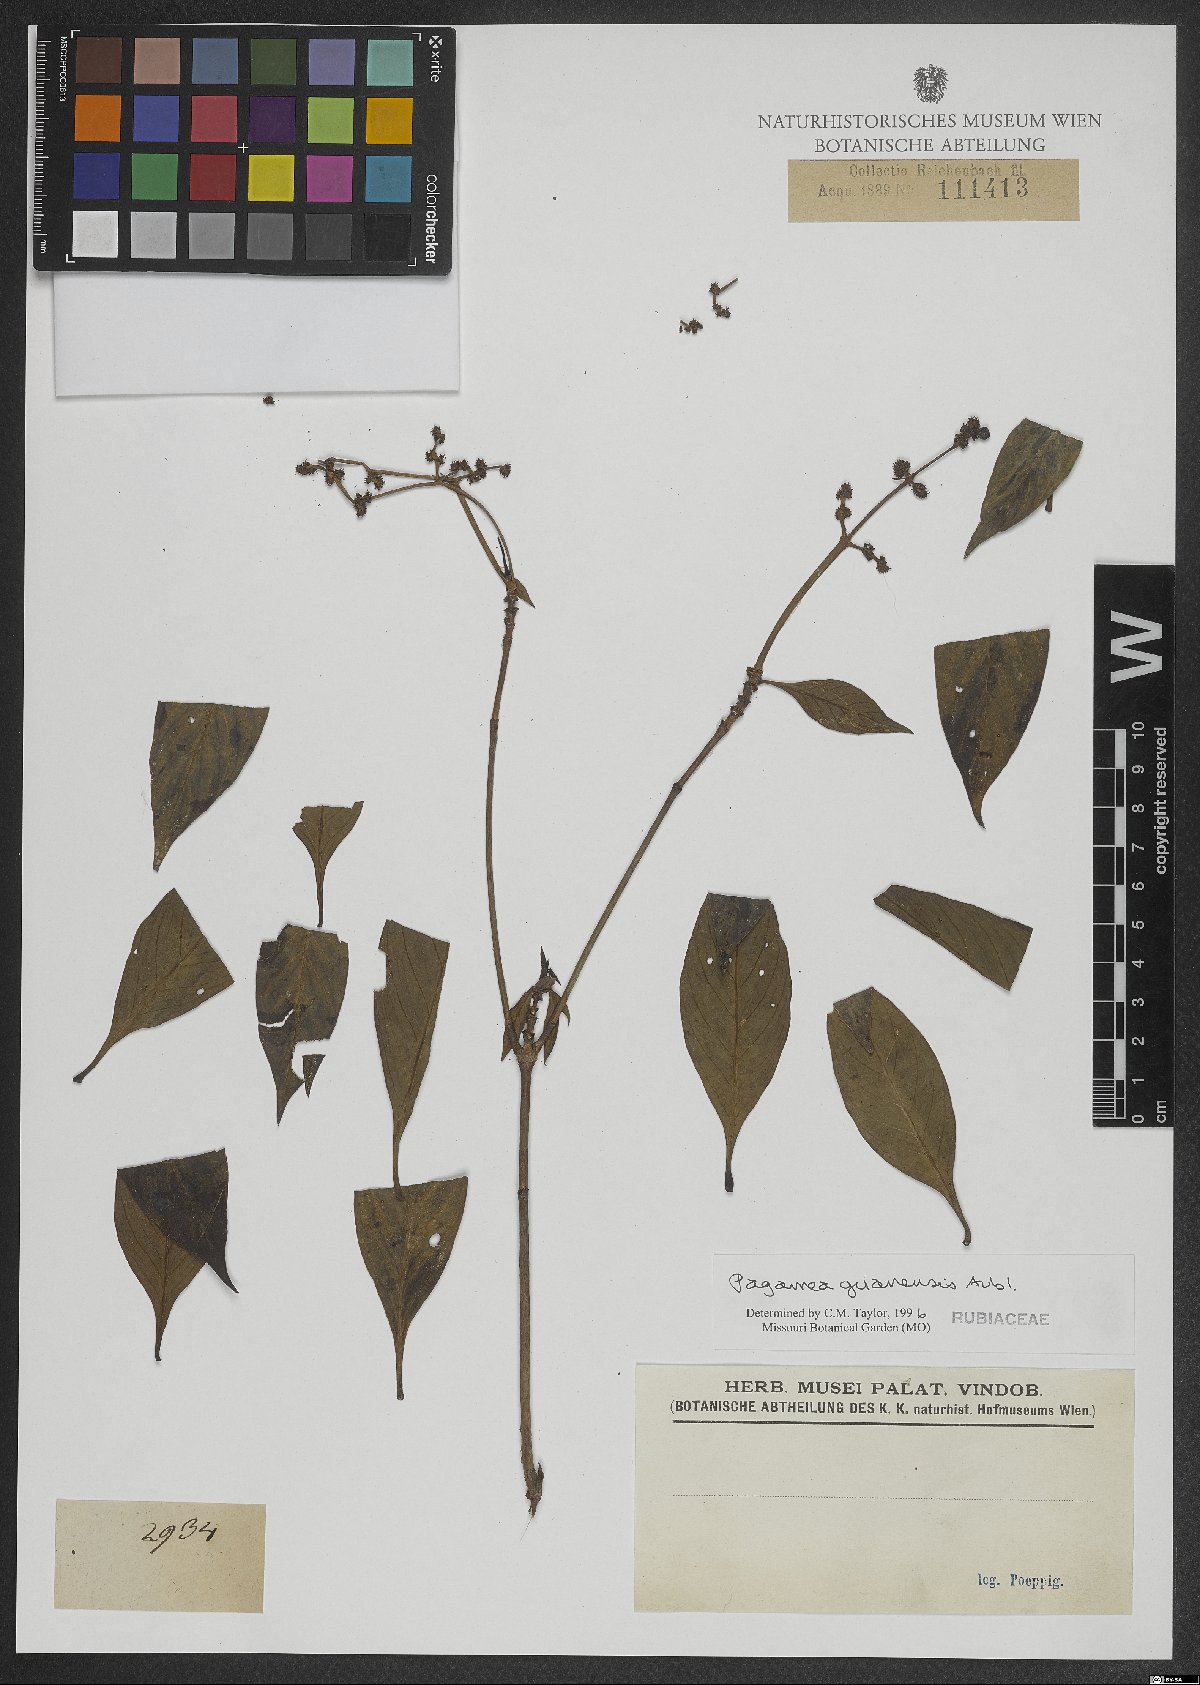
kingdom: Plantae
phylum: Tracheophyta
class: Magnoliopsida
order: Gentianales
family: Rubiaceae
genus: Pagamea
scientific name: Pagamea guianensis
